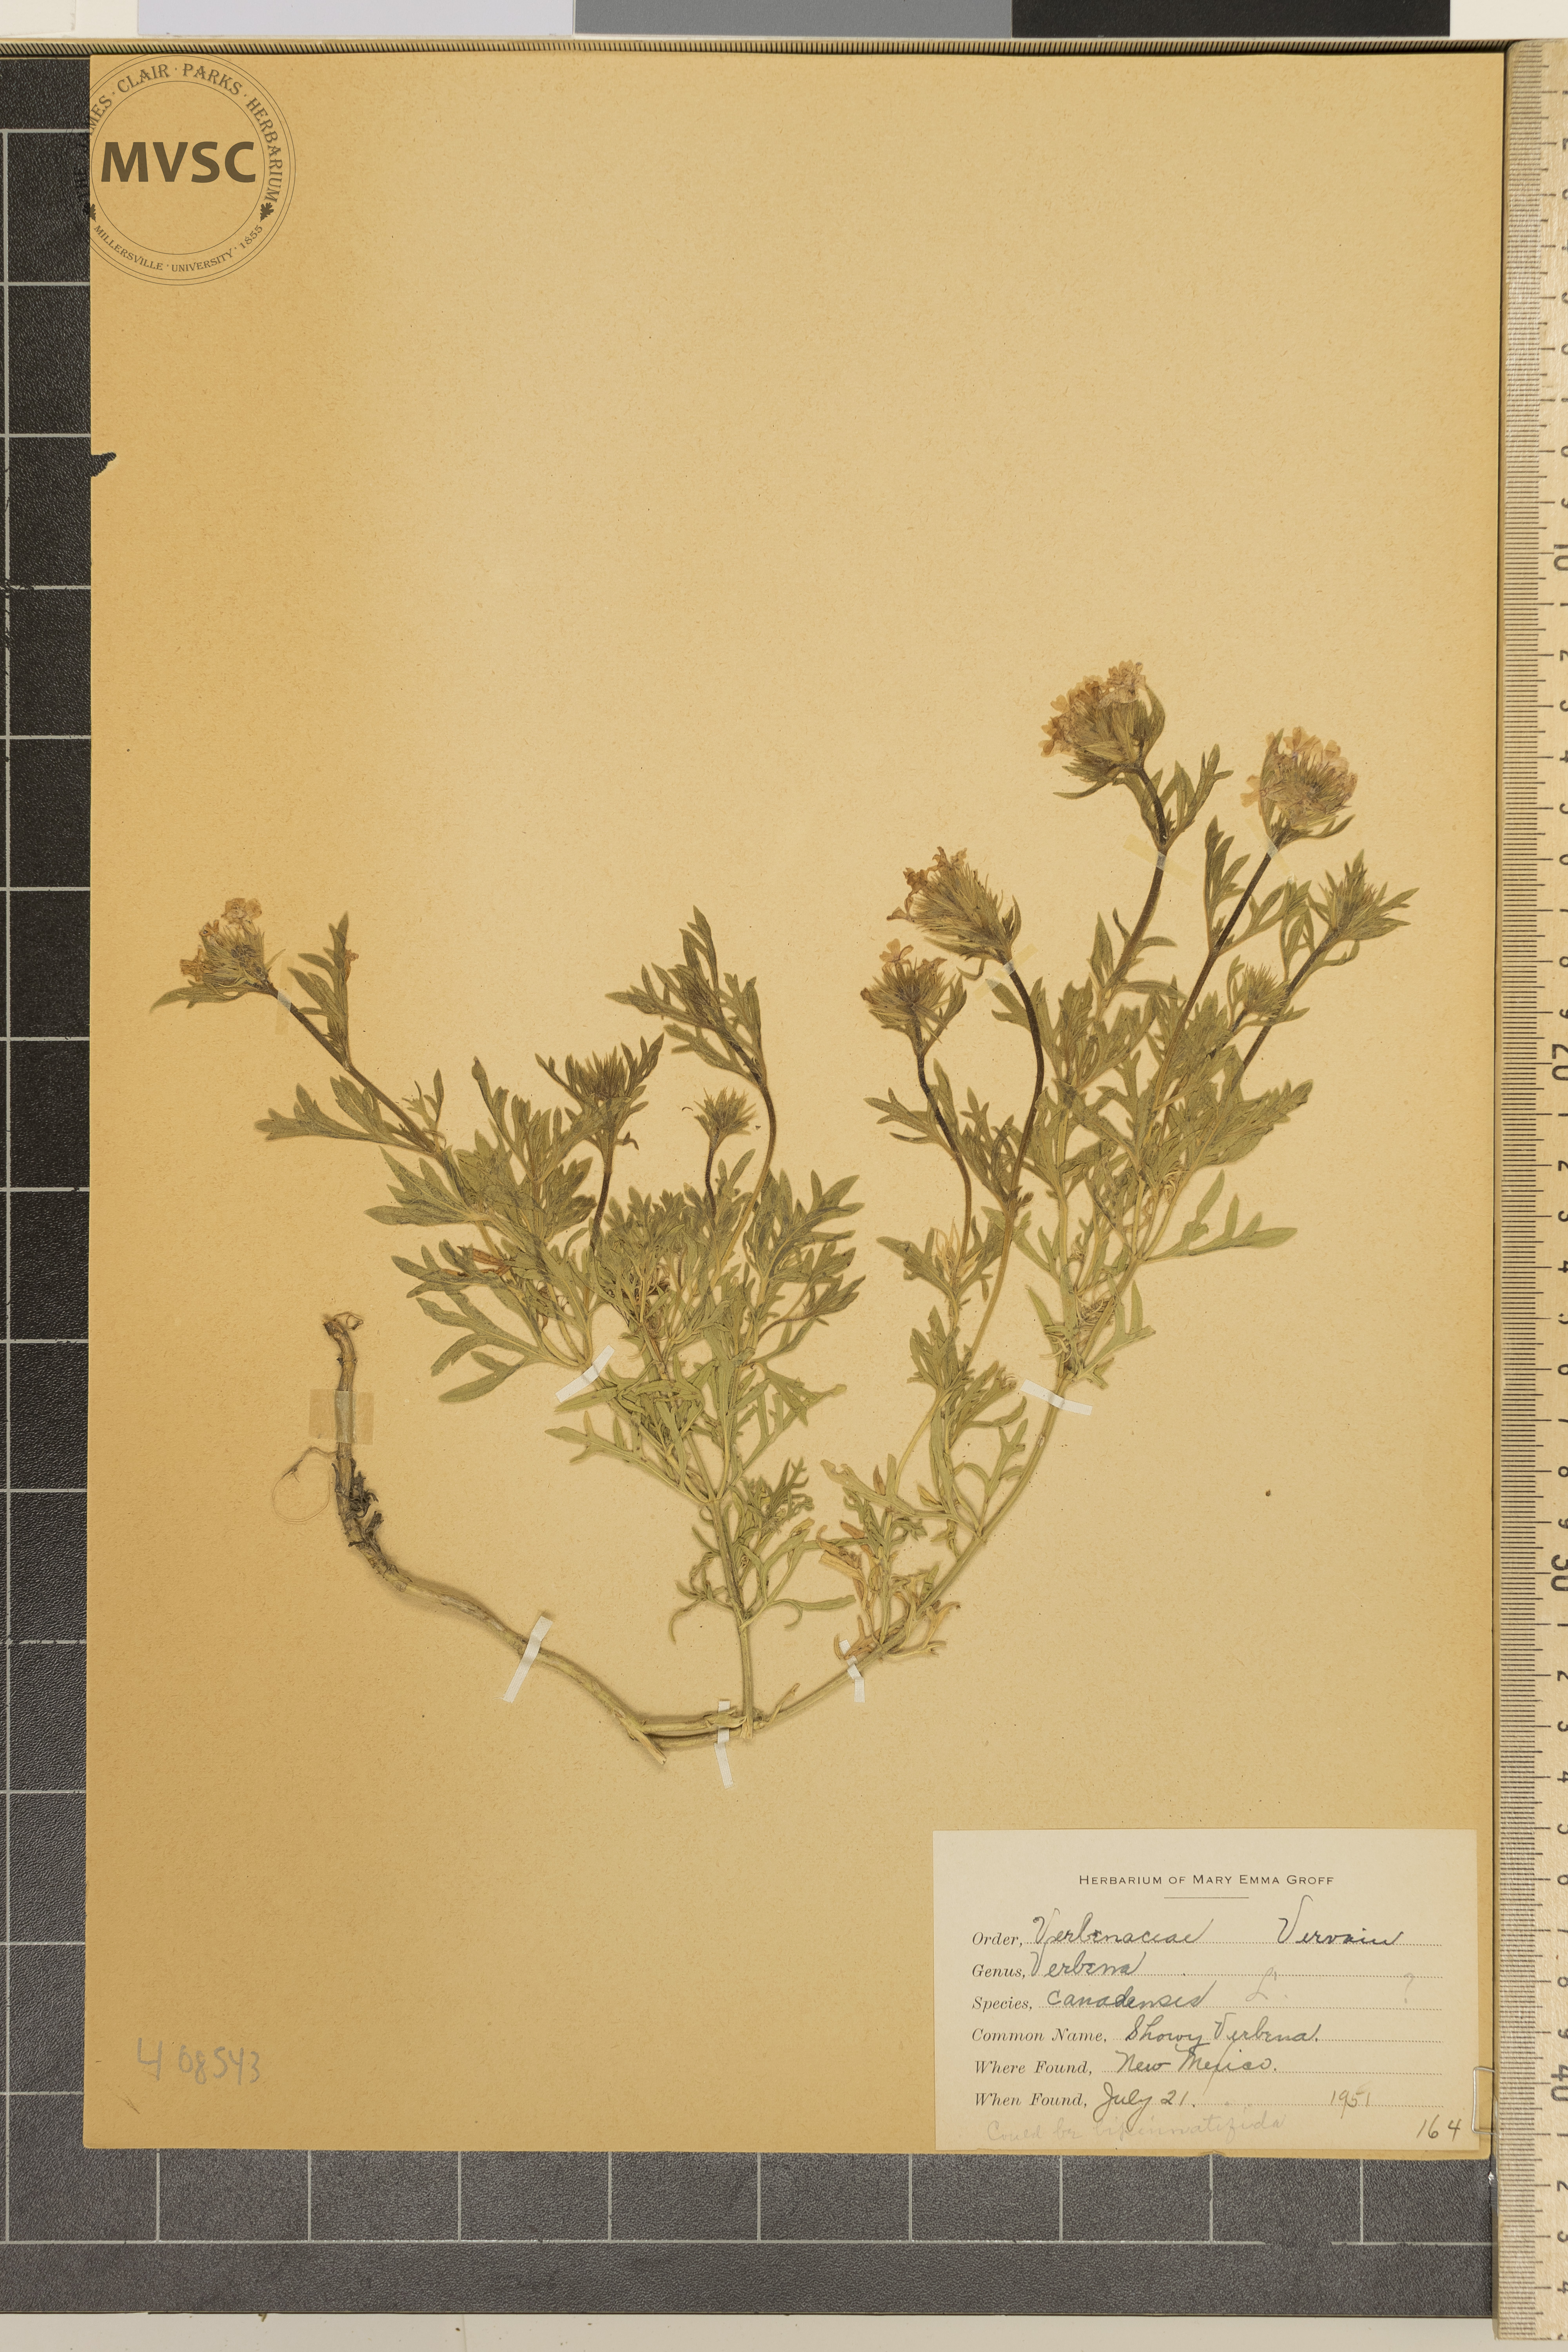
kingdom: Plantae
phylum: Tracheophyta
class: Magnoliopsida
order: Lamiales
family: Verbenaceae
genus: Verbena
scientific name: Verbena canadensis
